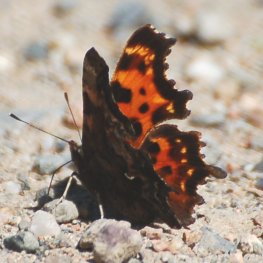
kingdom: Animalia
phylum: Arthropoda
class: Insecta
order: Lepidoptera
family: Nymphalidae
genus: Polygonia
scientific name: Polygonia faunus
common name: Green Comma
